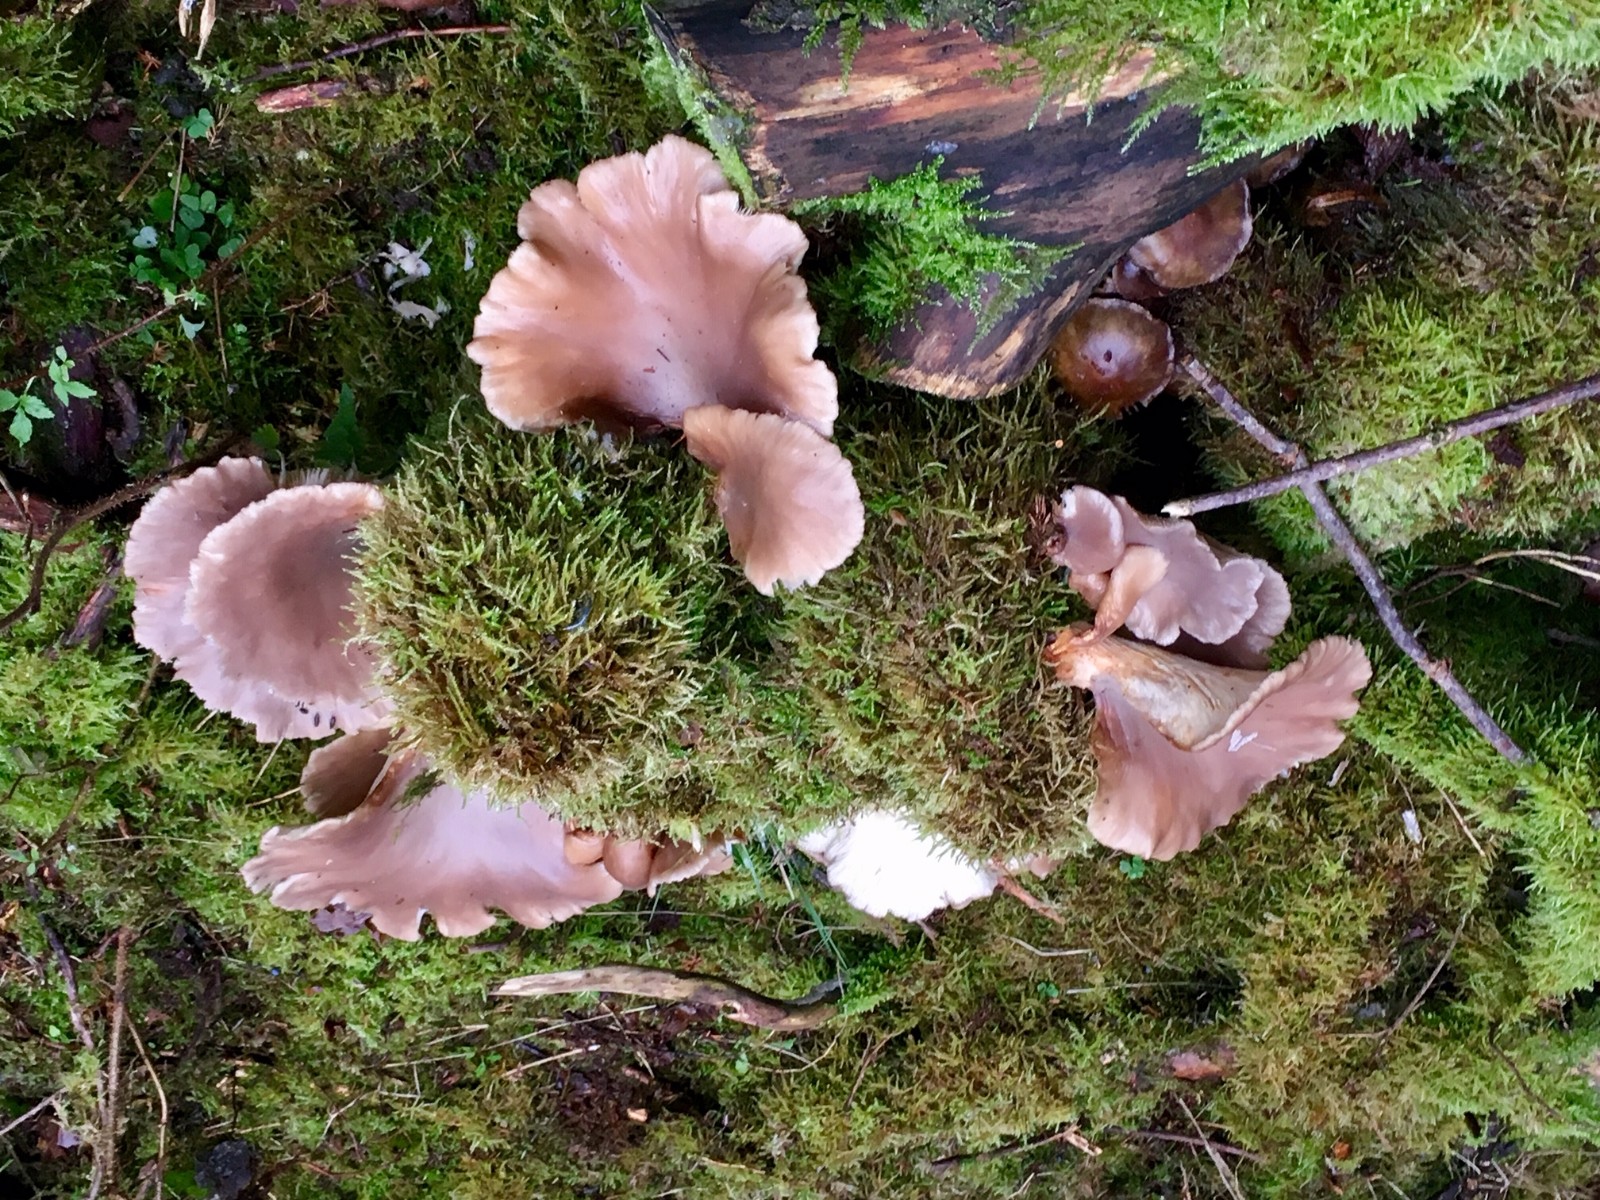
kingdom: Fungi
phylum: Basidiomycota
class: Agaricomycetes
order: Agaricales
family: Pleurotaceae
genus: Pleurotus
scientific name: Pleurotus ostreatus
